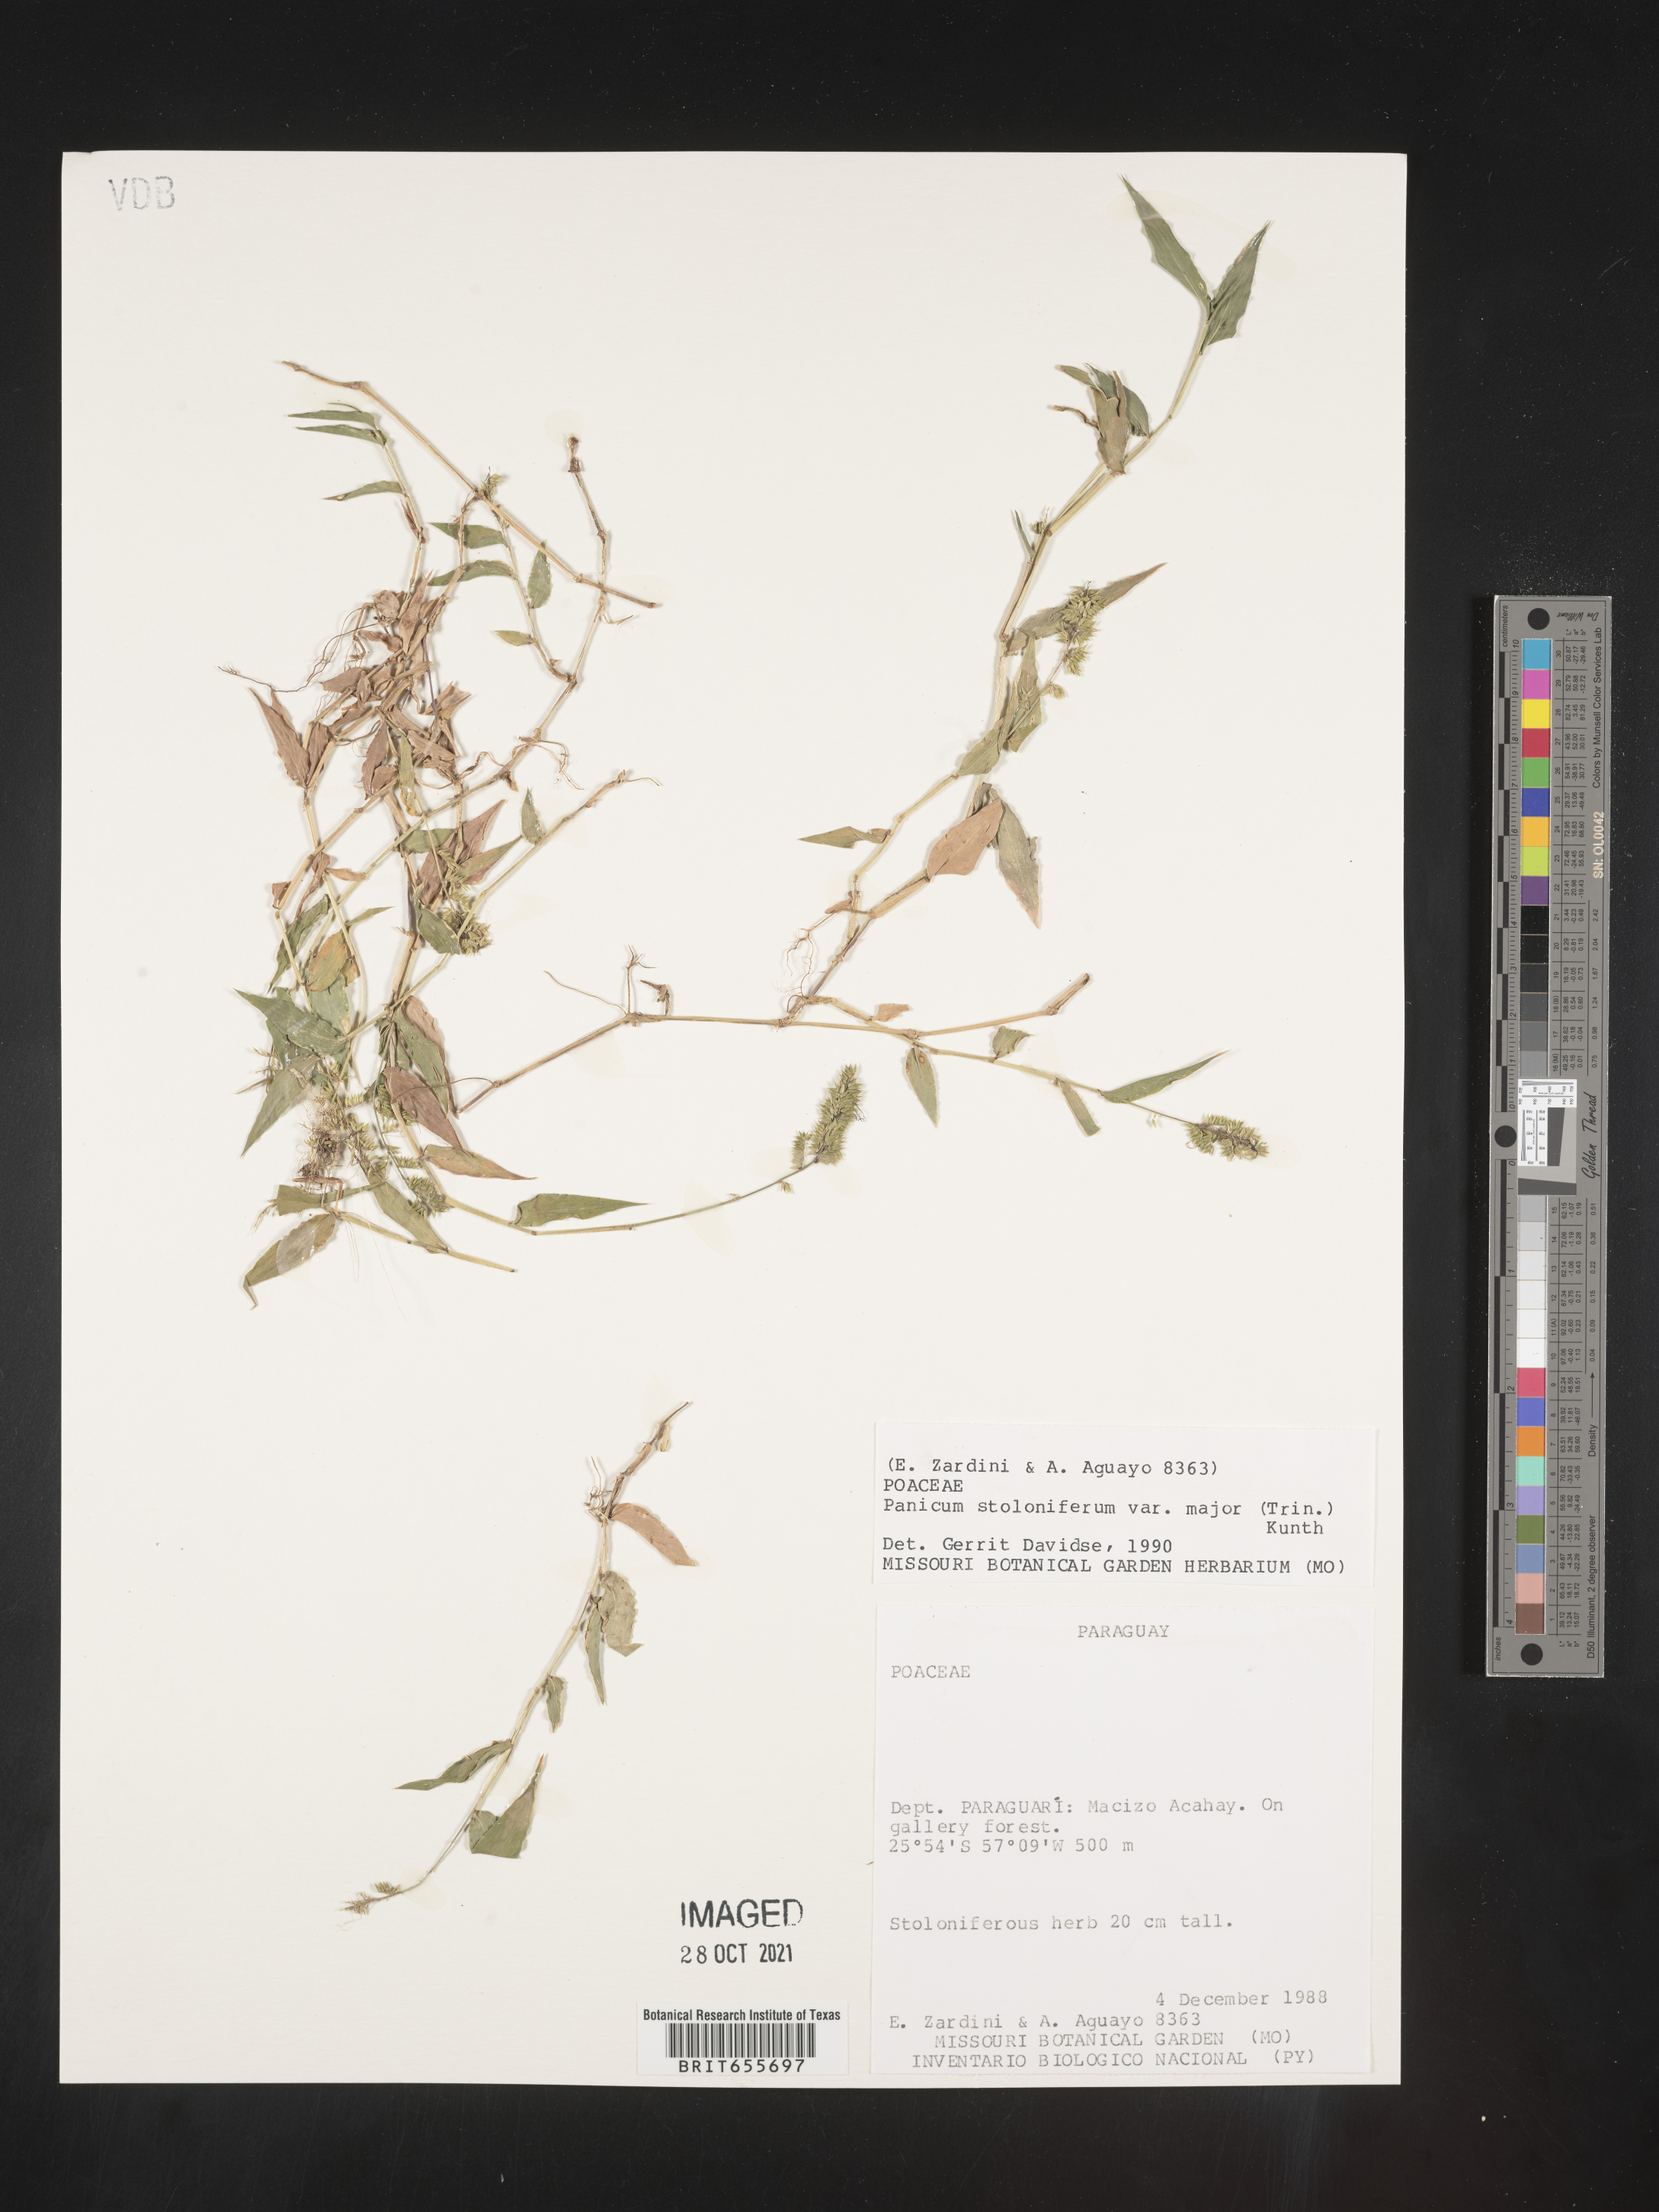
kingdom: Plantae
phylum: Tracheophyta
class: Liliopsida
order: Poales
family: Poaceae
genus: Panicum
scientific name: Panicum
